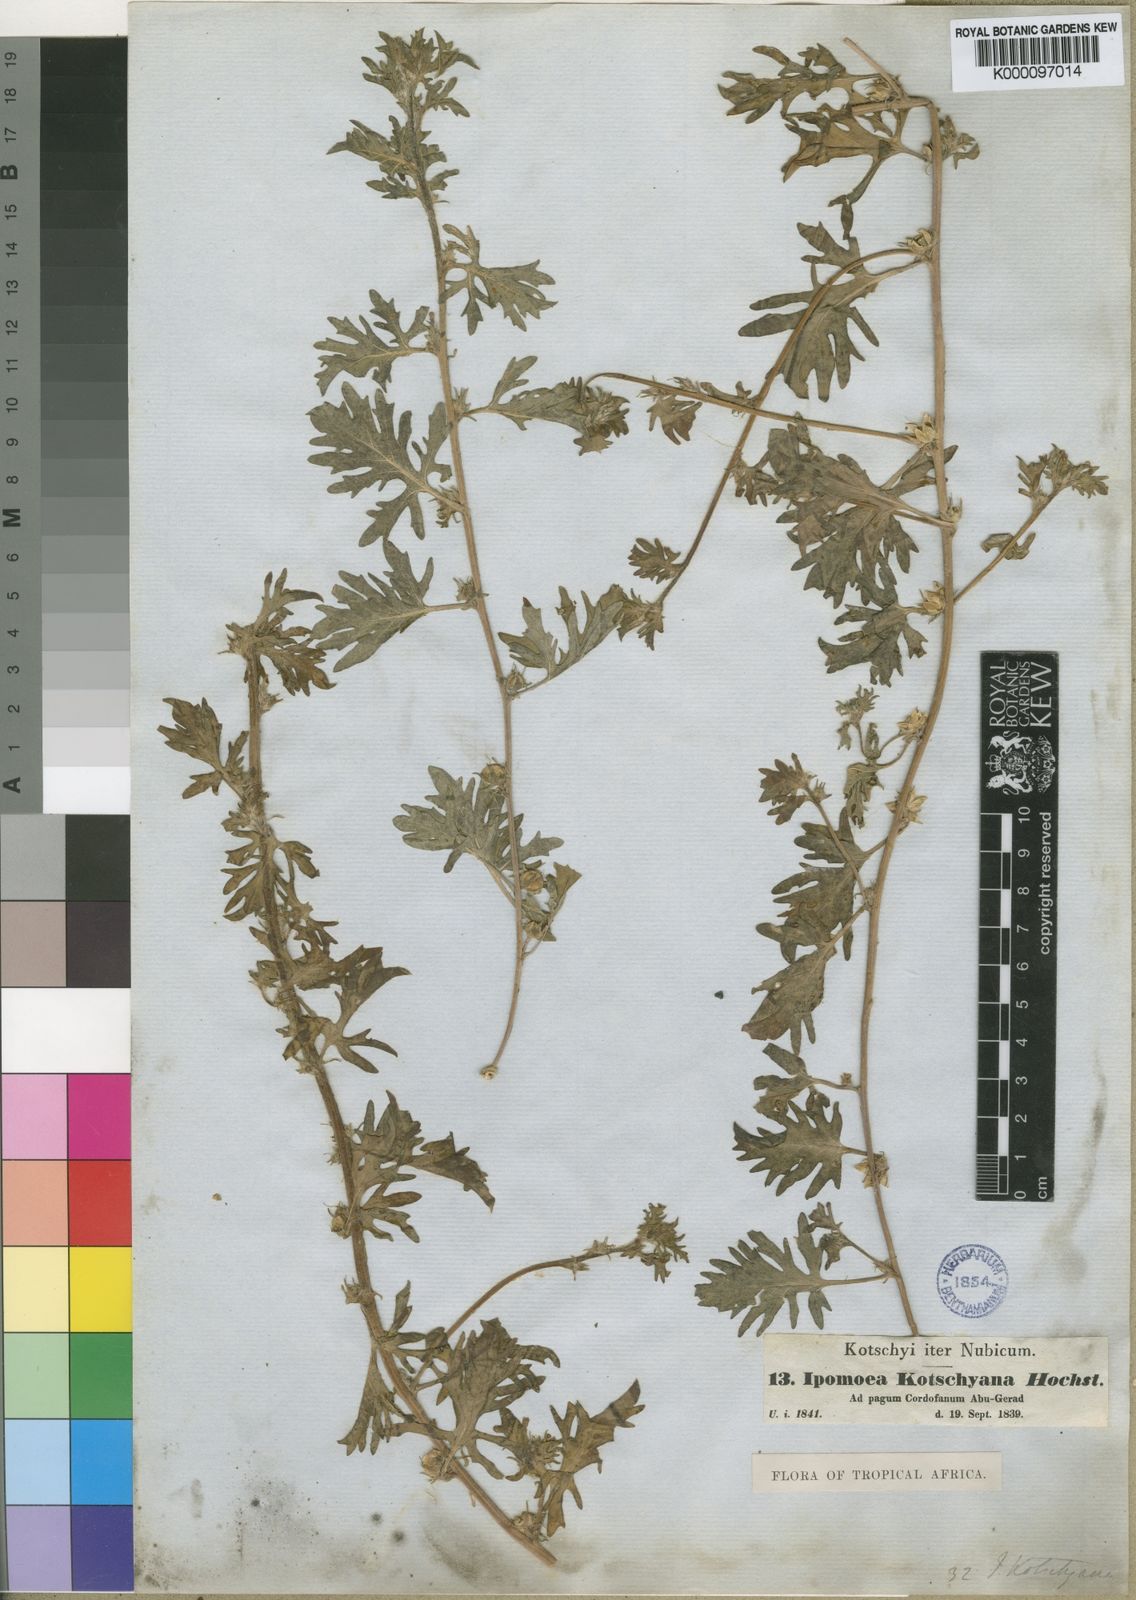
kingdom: Plantae
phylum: Tracheophyta
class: Magnoliopsida
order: Solanales
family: Convolvulaceae
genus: Ipomoea
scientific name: Ipomoea kotschyana
